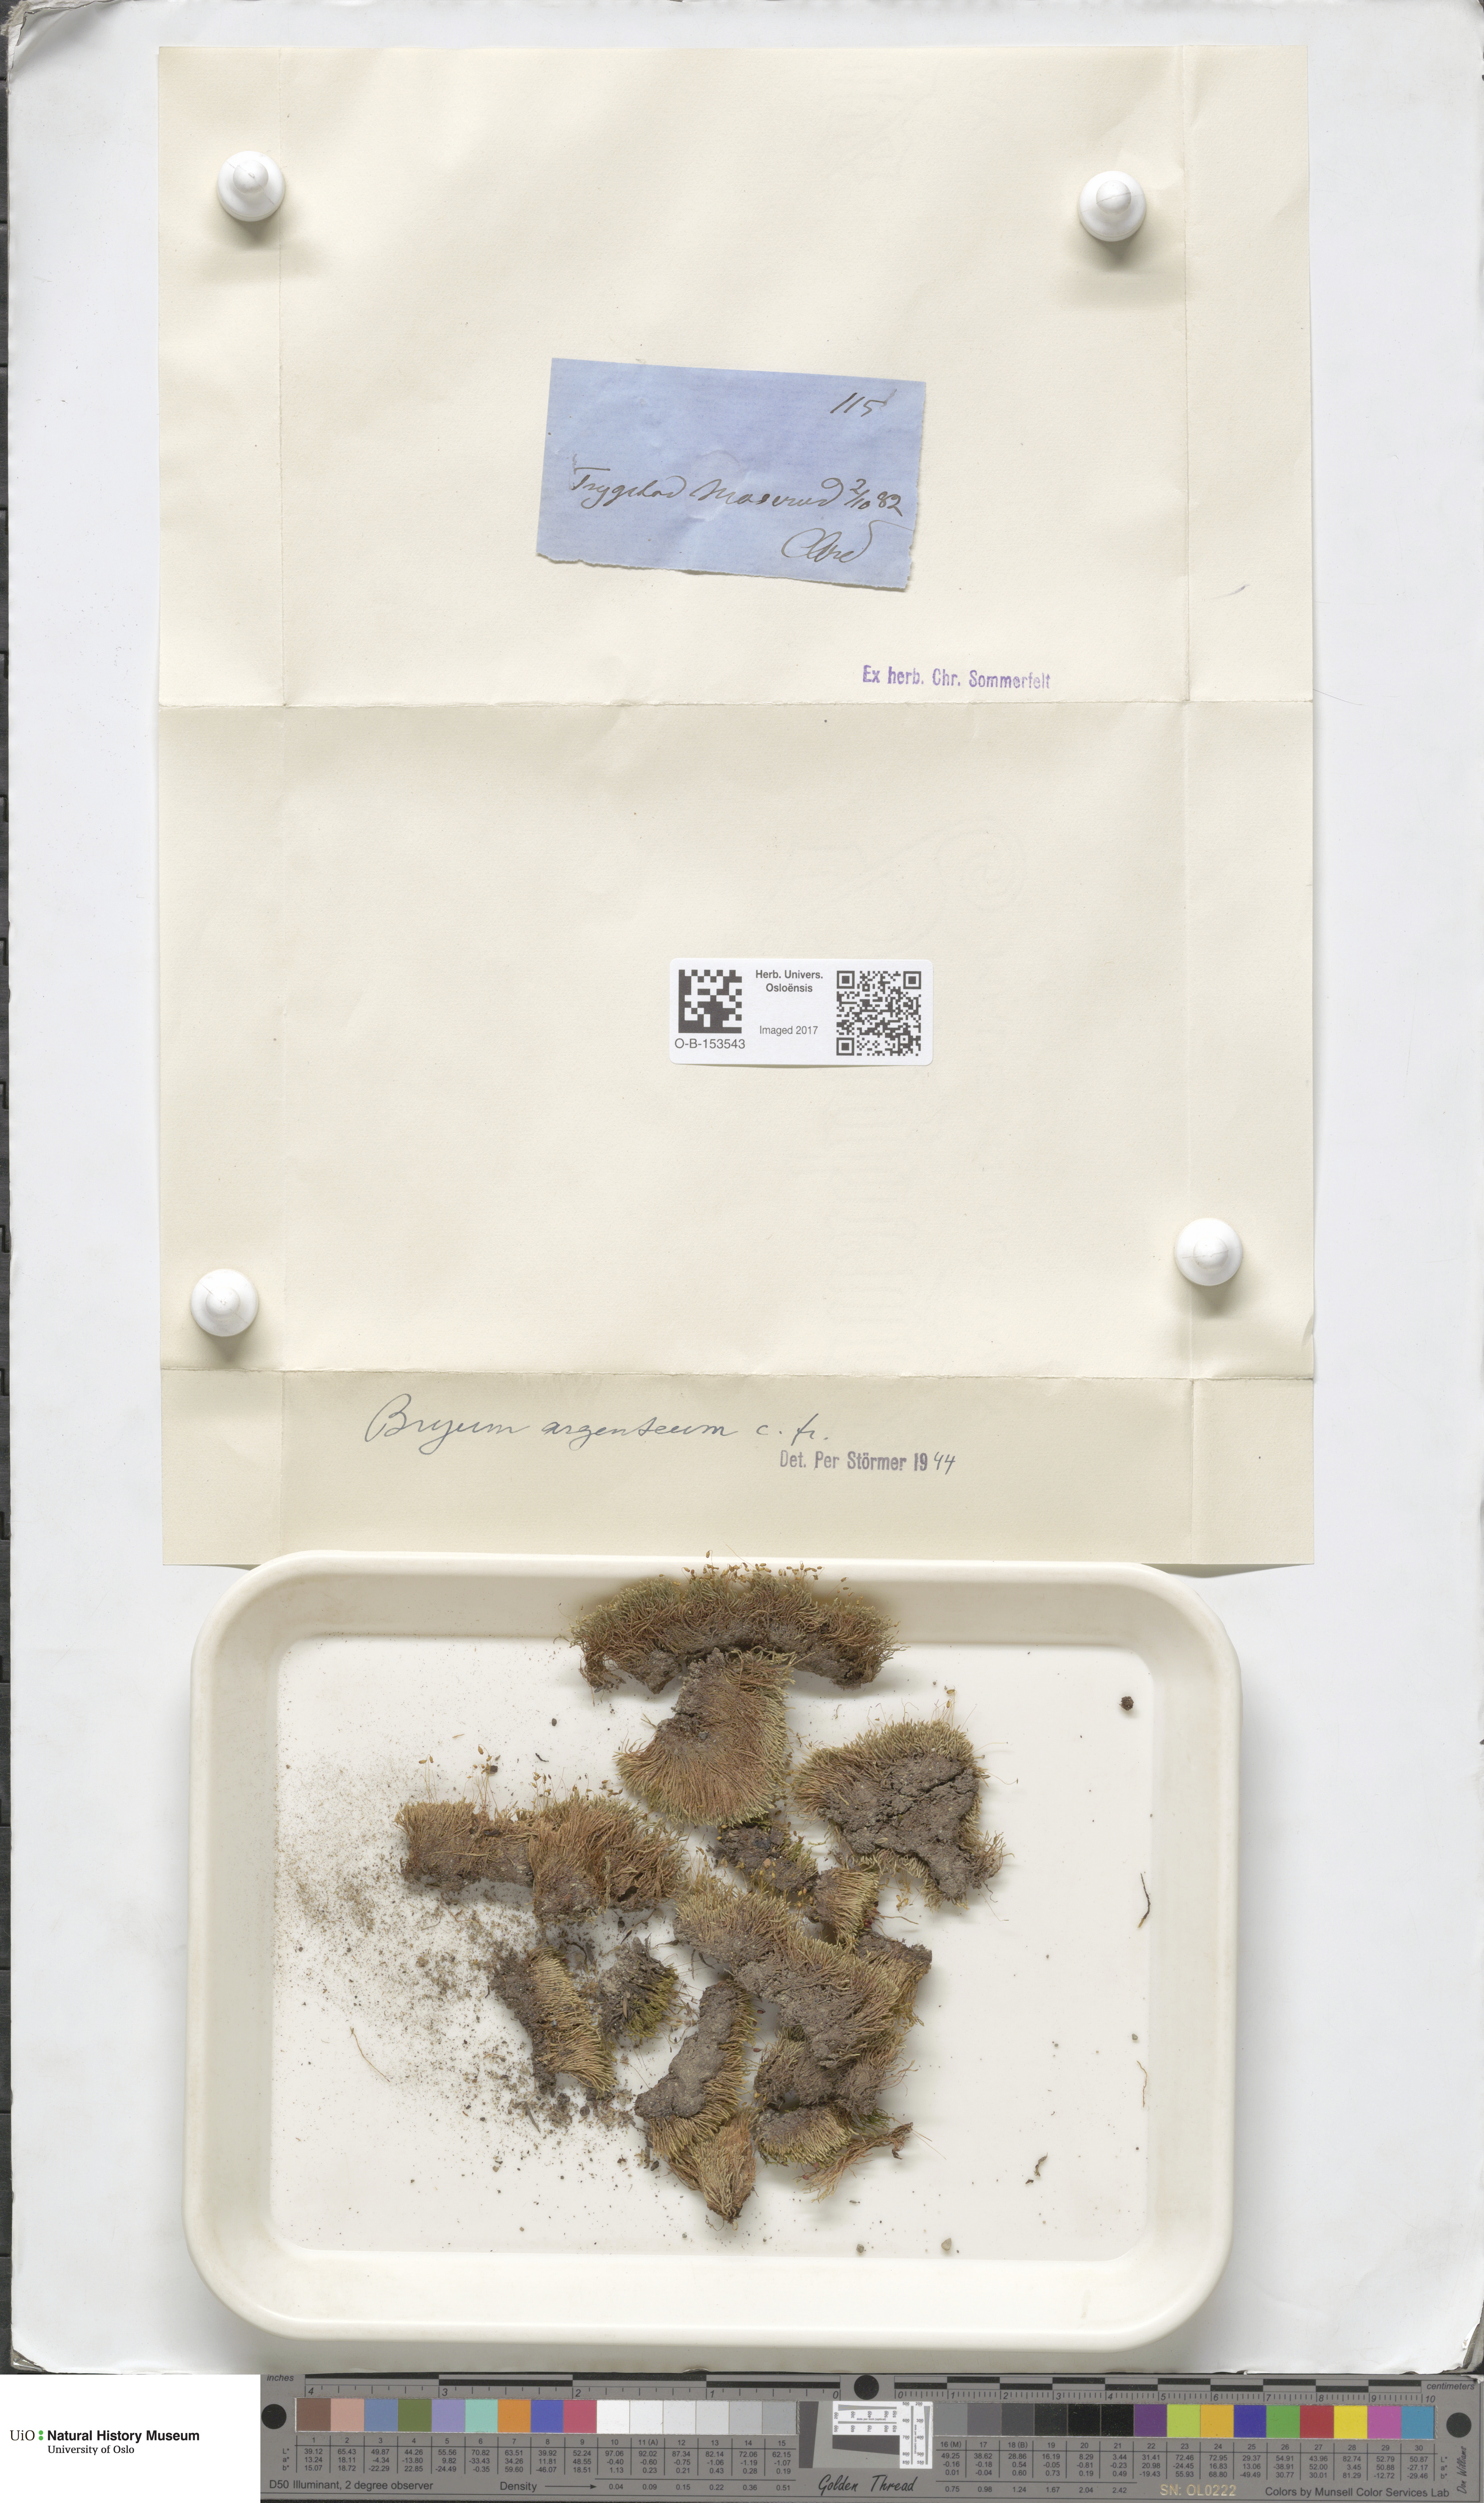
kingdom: Plantae
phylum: Bryophyta
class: Bryopsida
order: Bryales
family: Bryaceae
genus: Bryum
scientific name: Bryum argenteum
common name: Silver-moss
